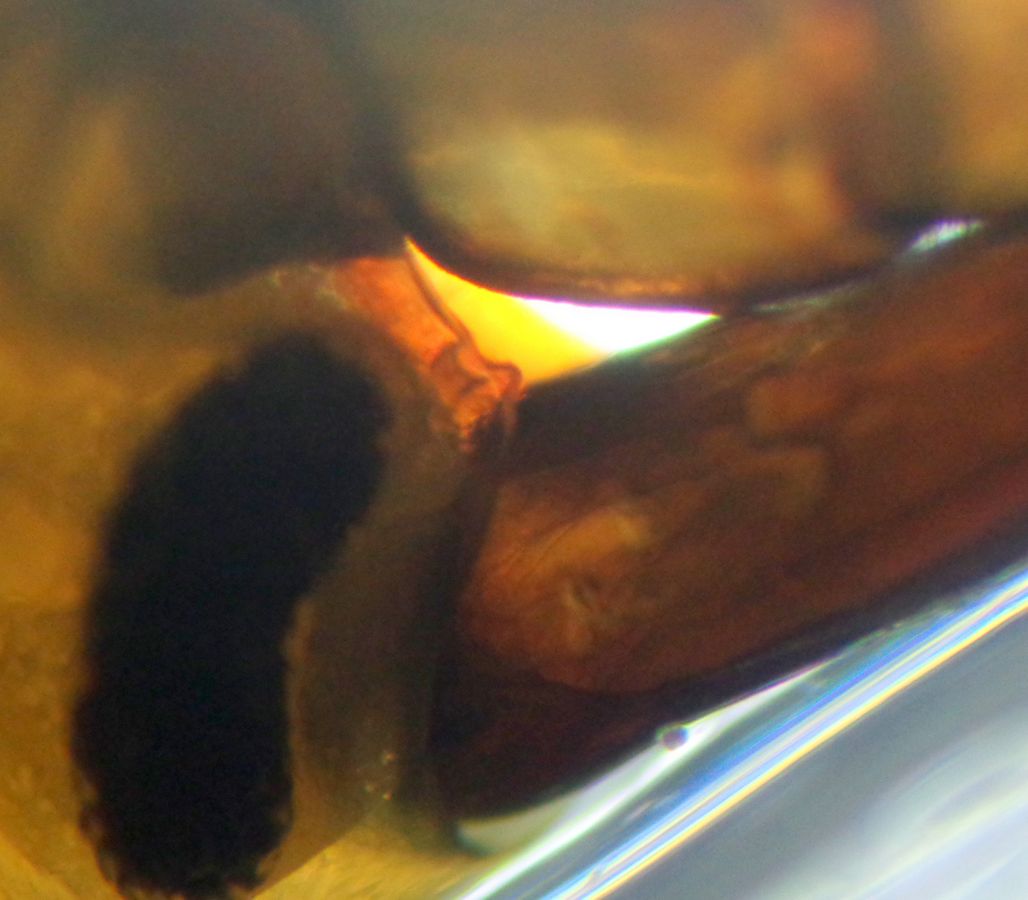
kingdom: Animalia
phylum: Arthropoda
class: Malacostraca
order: Amphipoda
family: Gammaridae
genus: Gammarus
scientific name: Gammarus oceanicus
